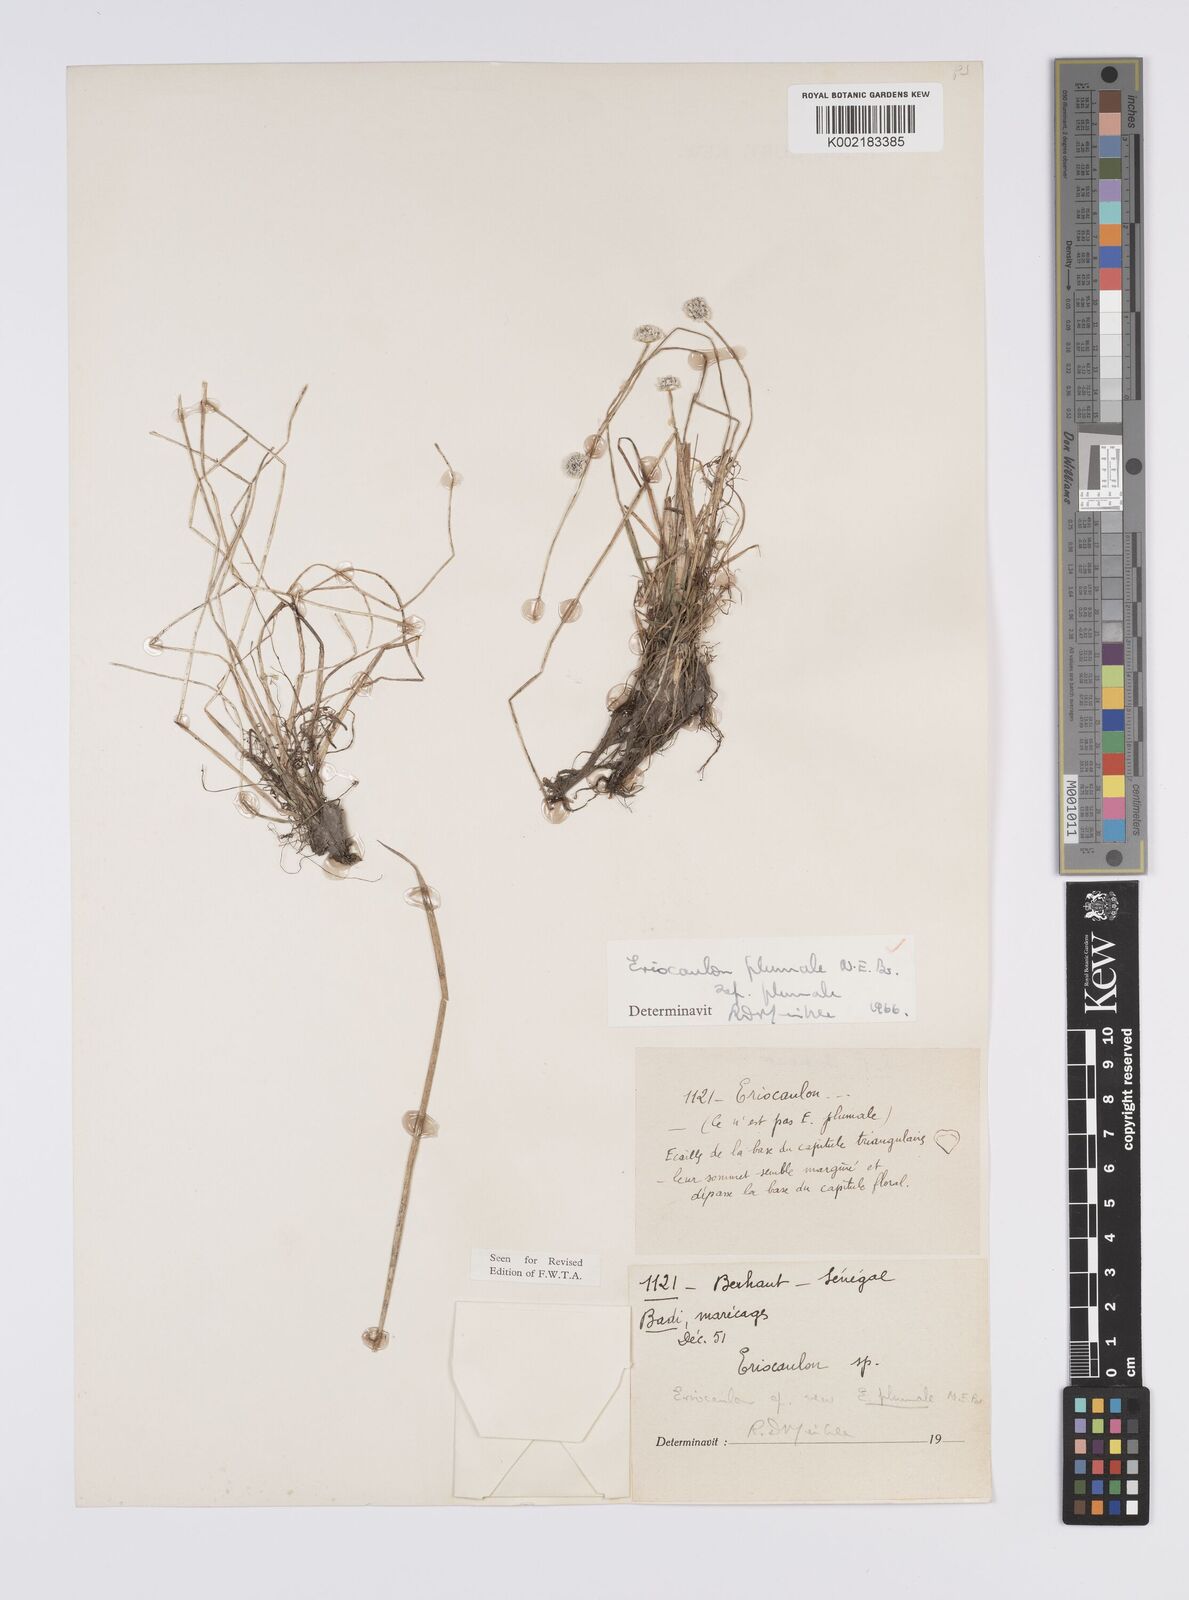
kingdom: Plantae
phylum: Tracheophyta
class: Liliopsida
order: Poales
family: Eriocaulaceae
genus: Eriocaulon
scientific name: Eriocaulon plumale
